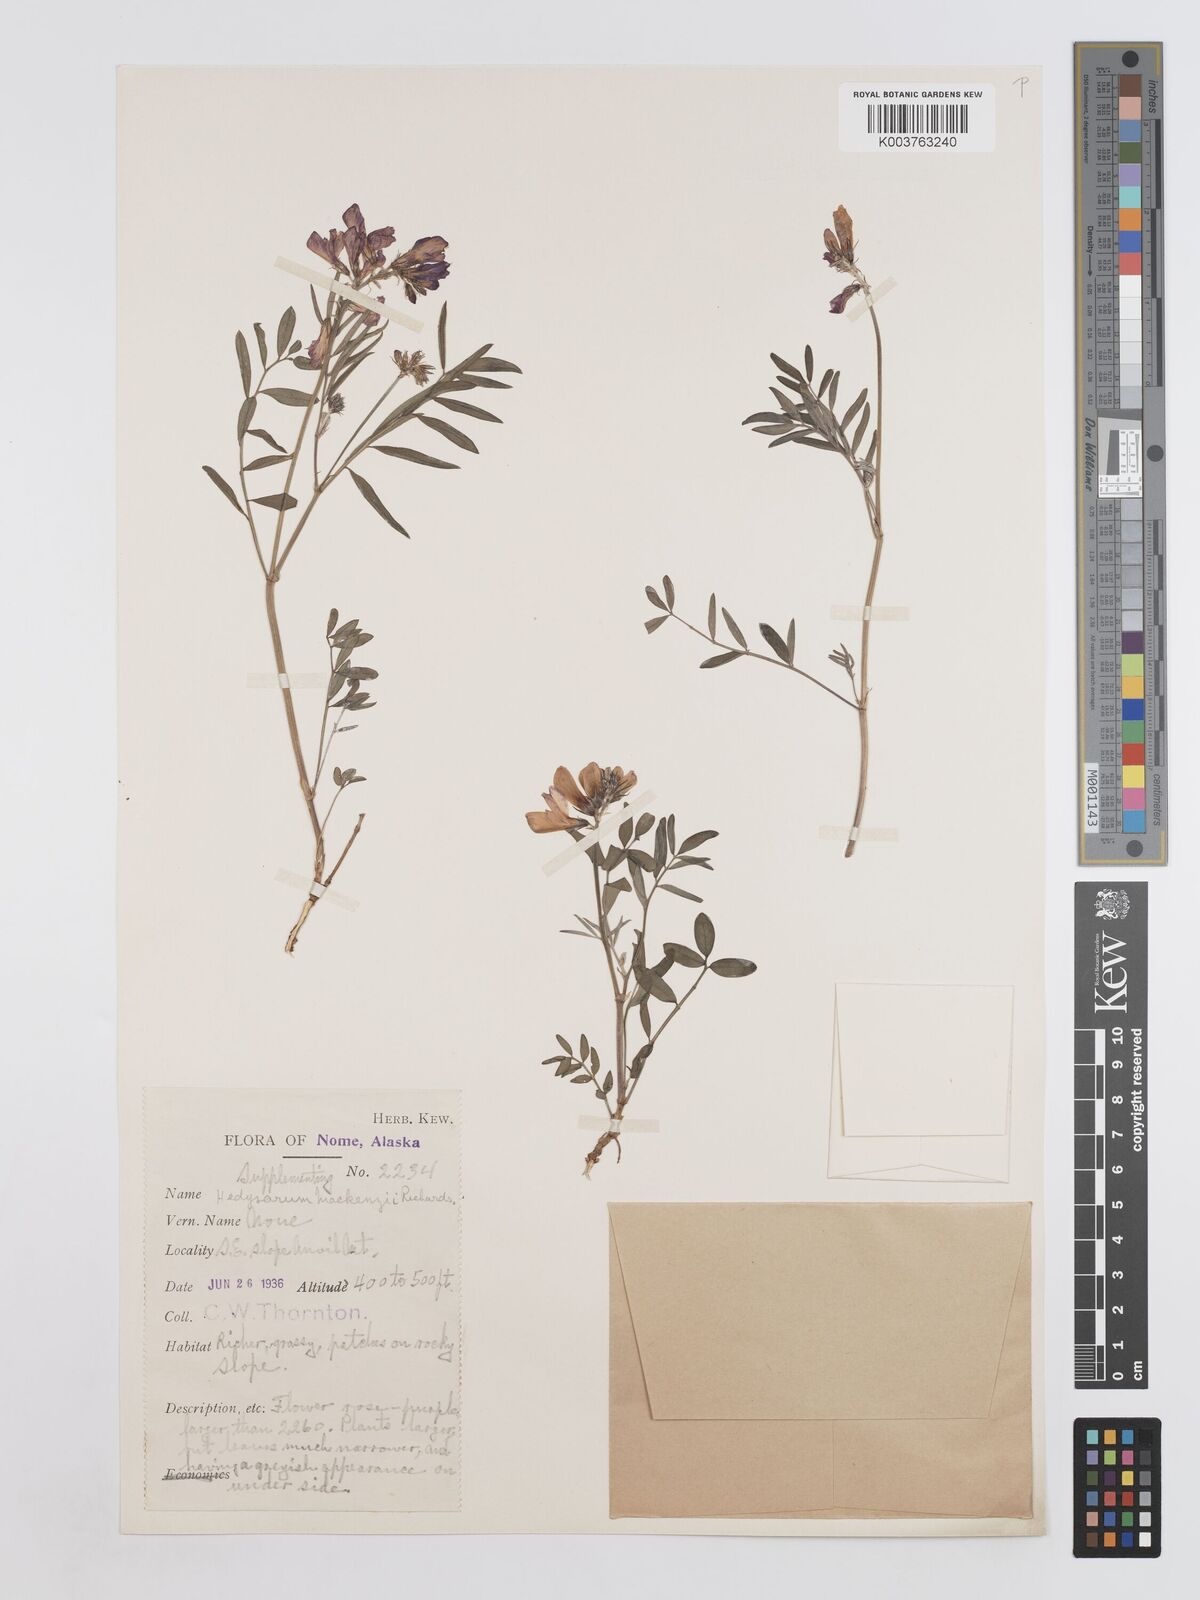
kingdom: Plantae
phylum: Tracheophyta
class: Magnoliopsida
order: Fabales
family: Fabaceae
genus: Hedysarum
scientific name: Hedysarum boreale
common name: Northern sweet-vetch
